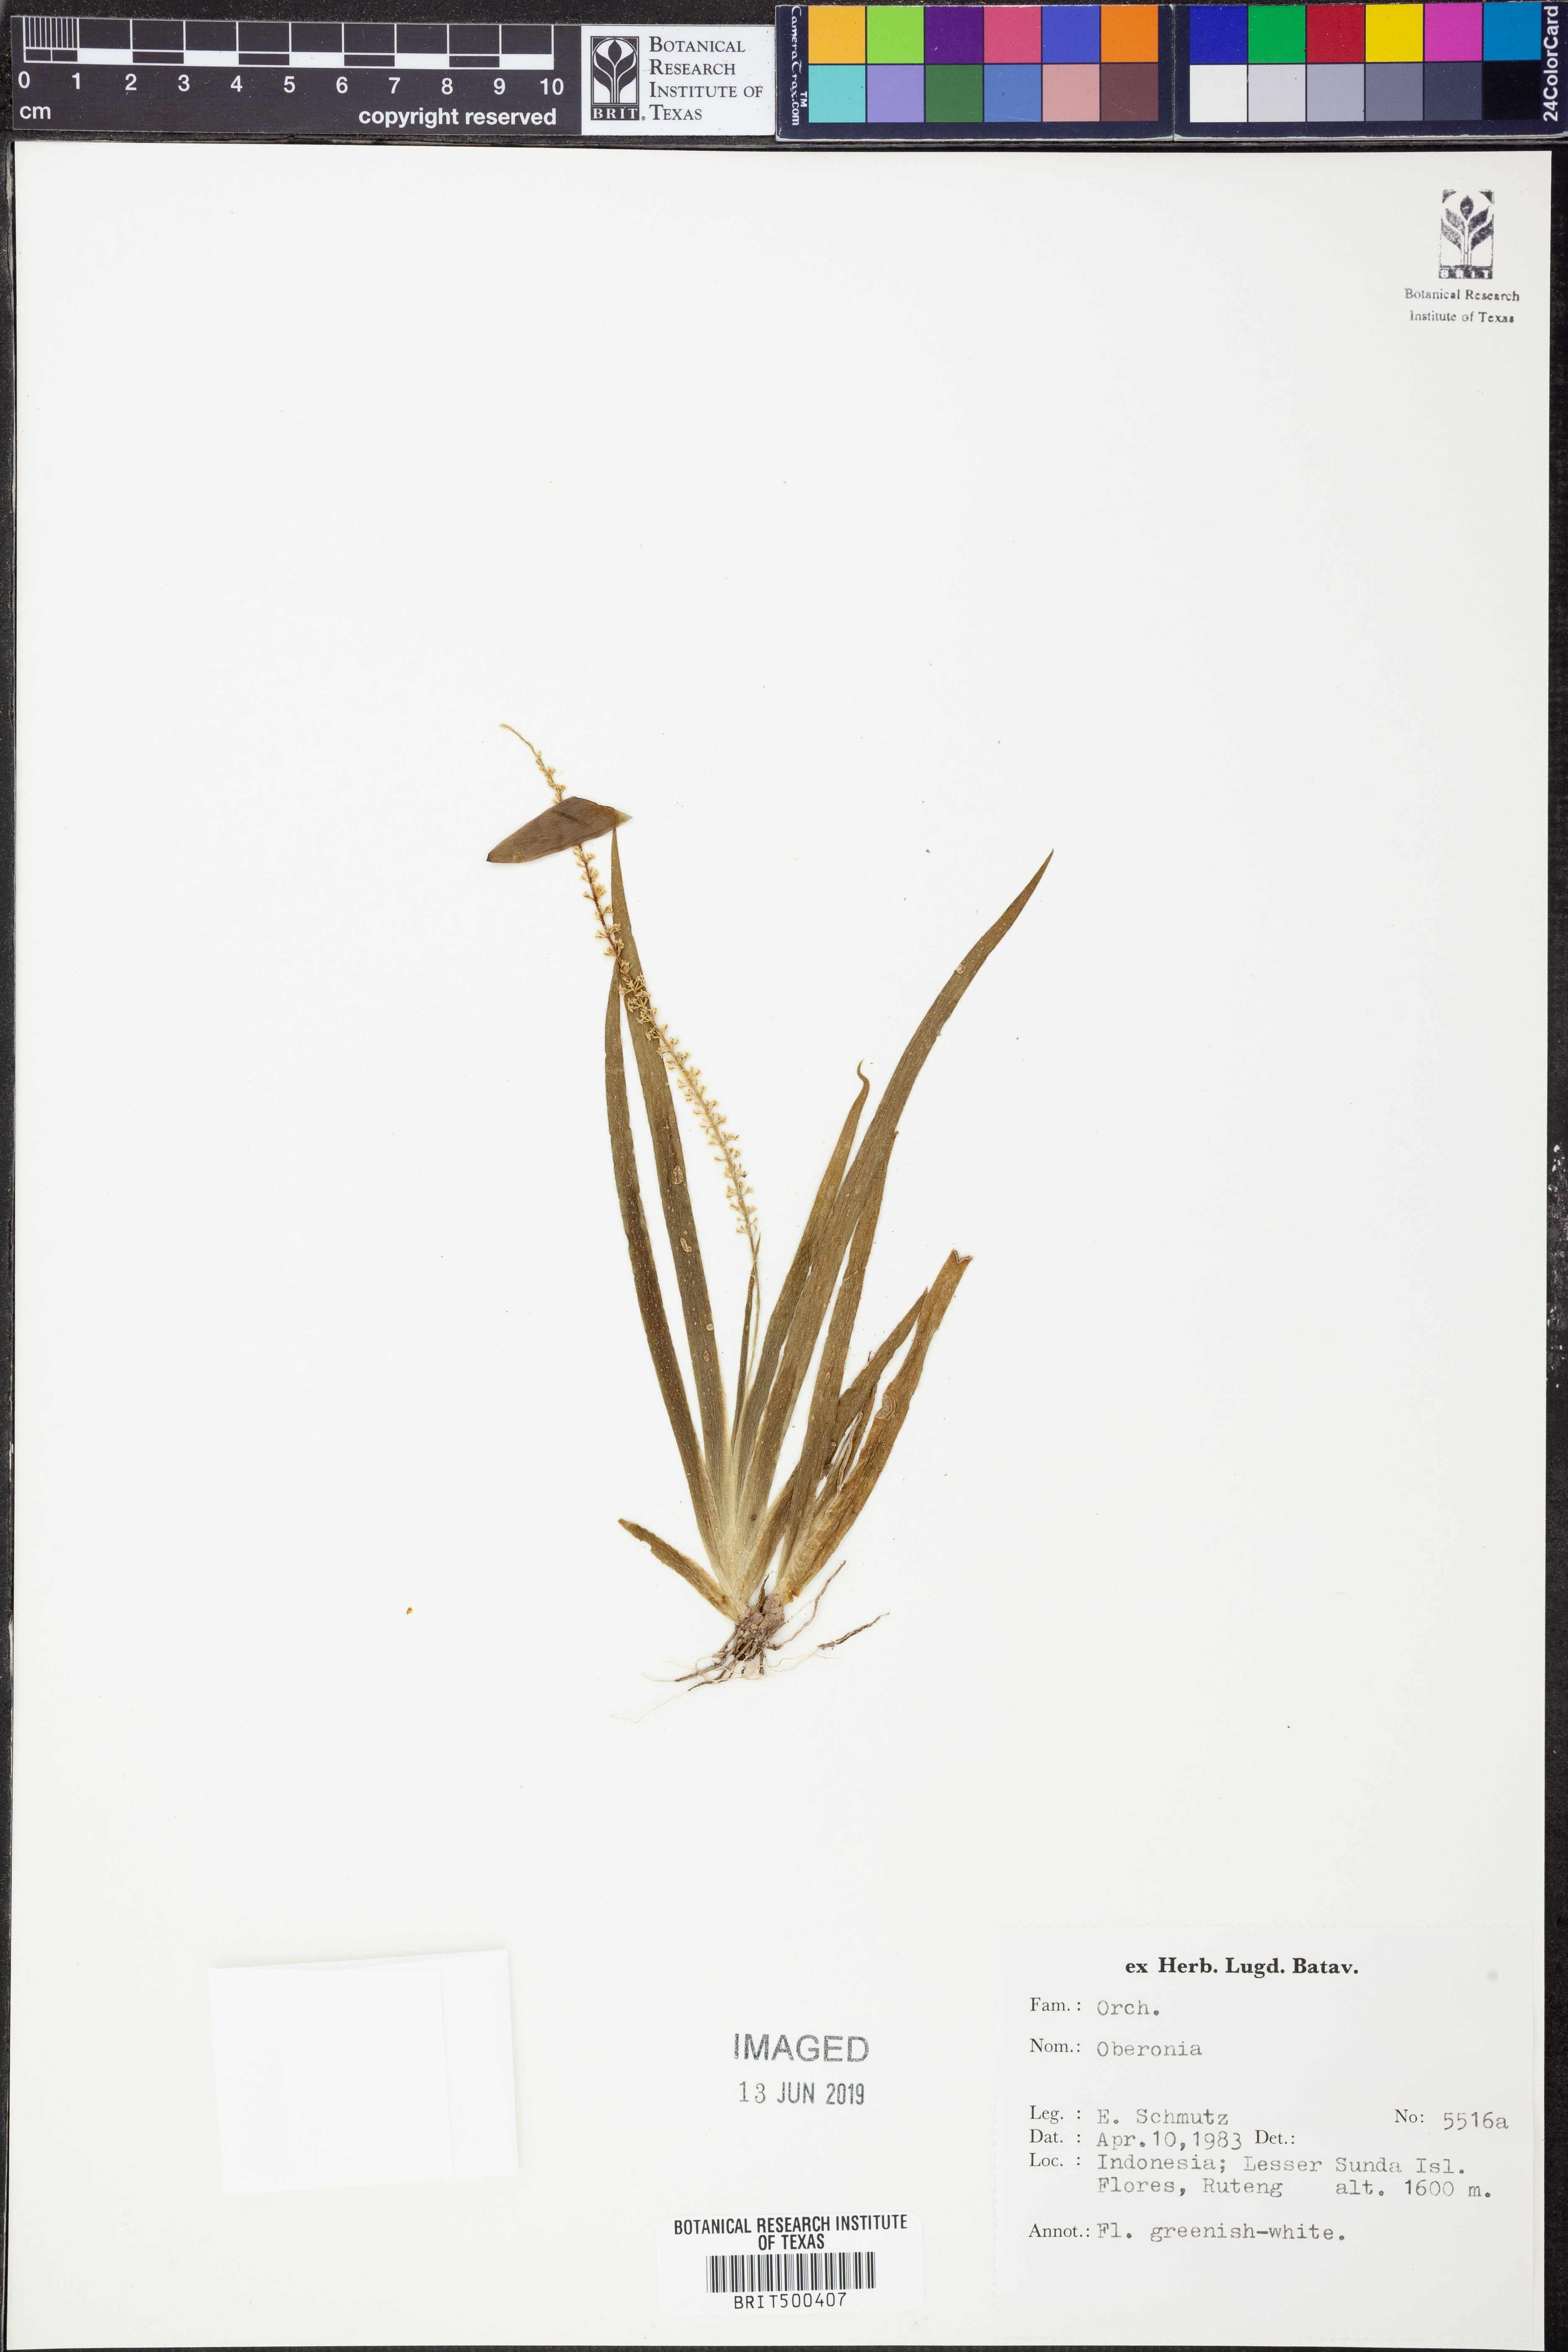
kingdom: Plantae
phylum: Tracheophyta
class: Liliopsida
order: Asparagales
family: Orchidaceae
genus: Oberonia
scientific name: Oberonia
